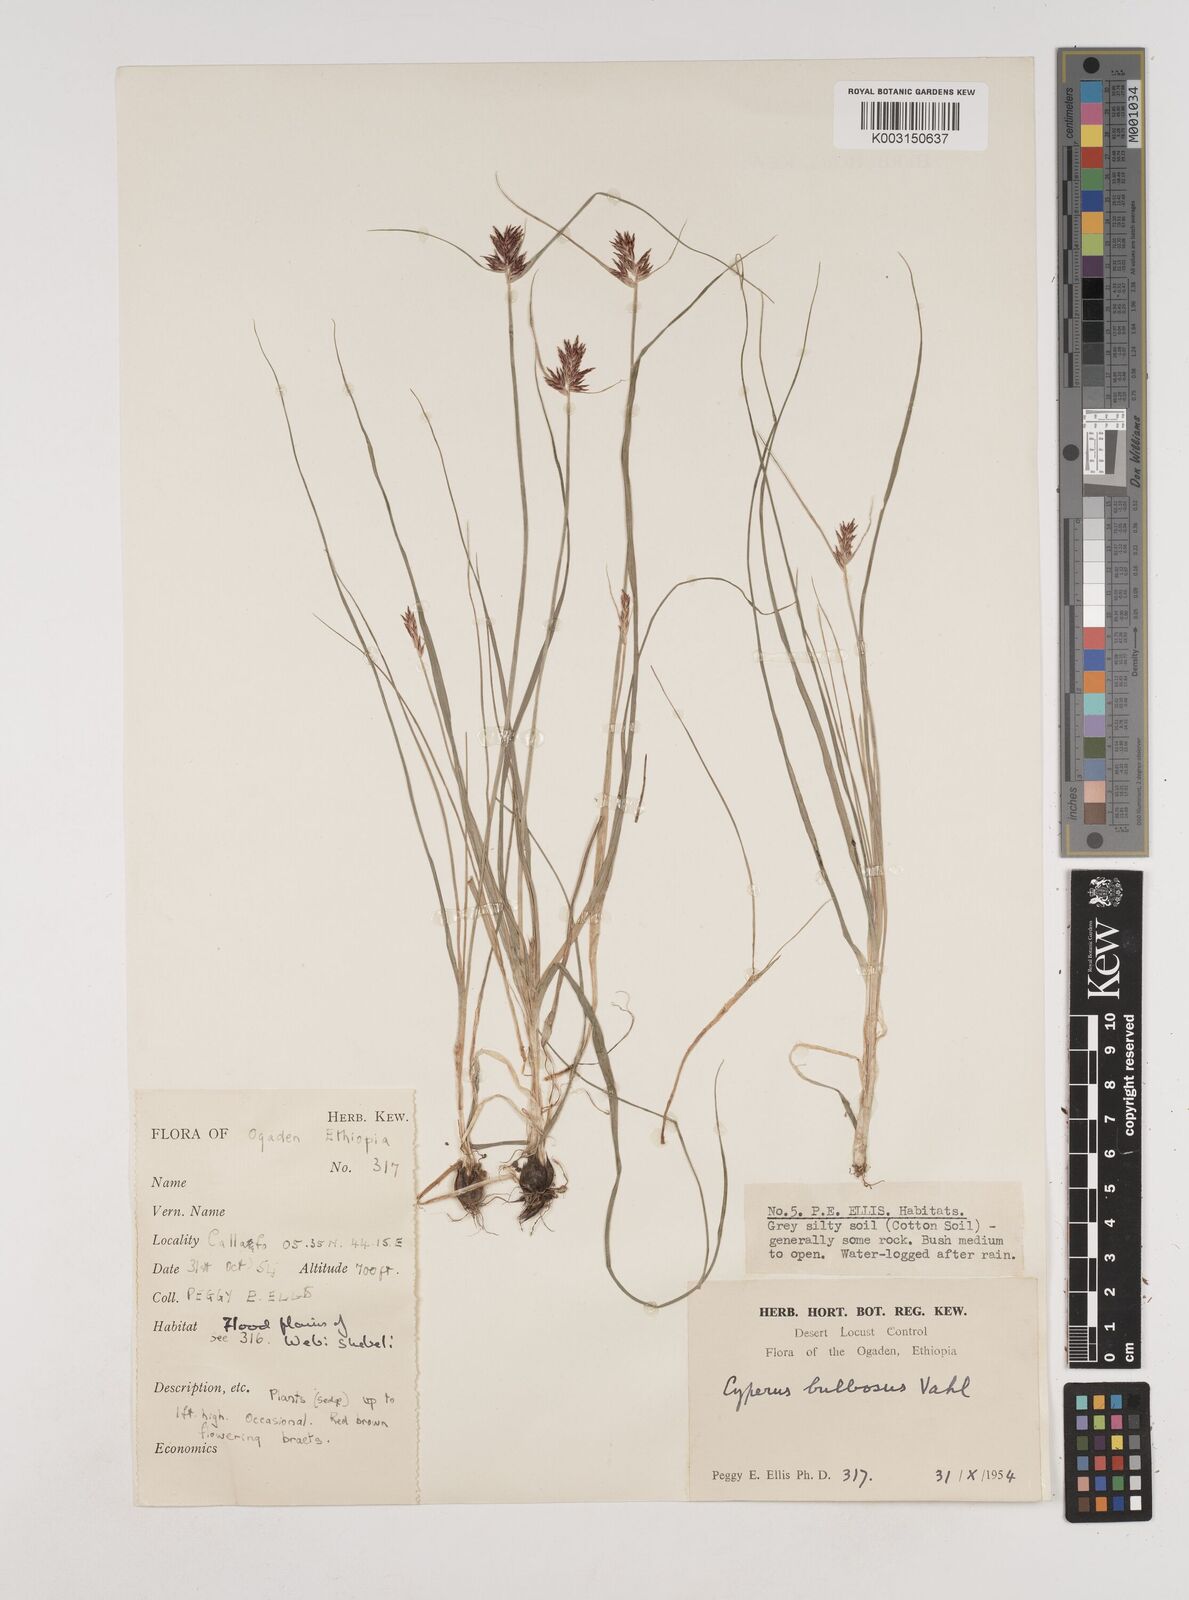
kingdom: Plantae
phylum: Tracheophyta
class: Liliopsida
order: Poales
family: Cyperaceae
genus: Cyperus
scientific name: Cyperus bulbosus
